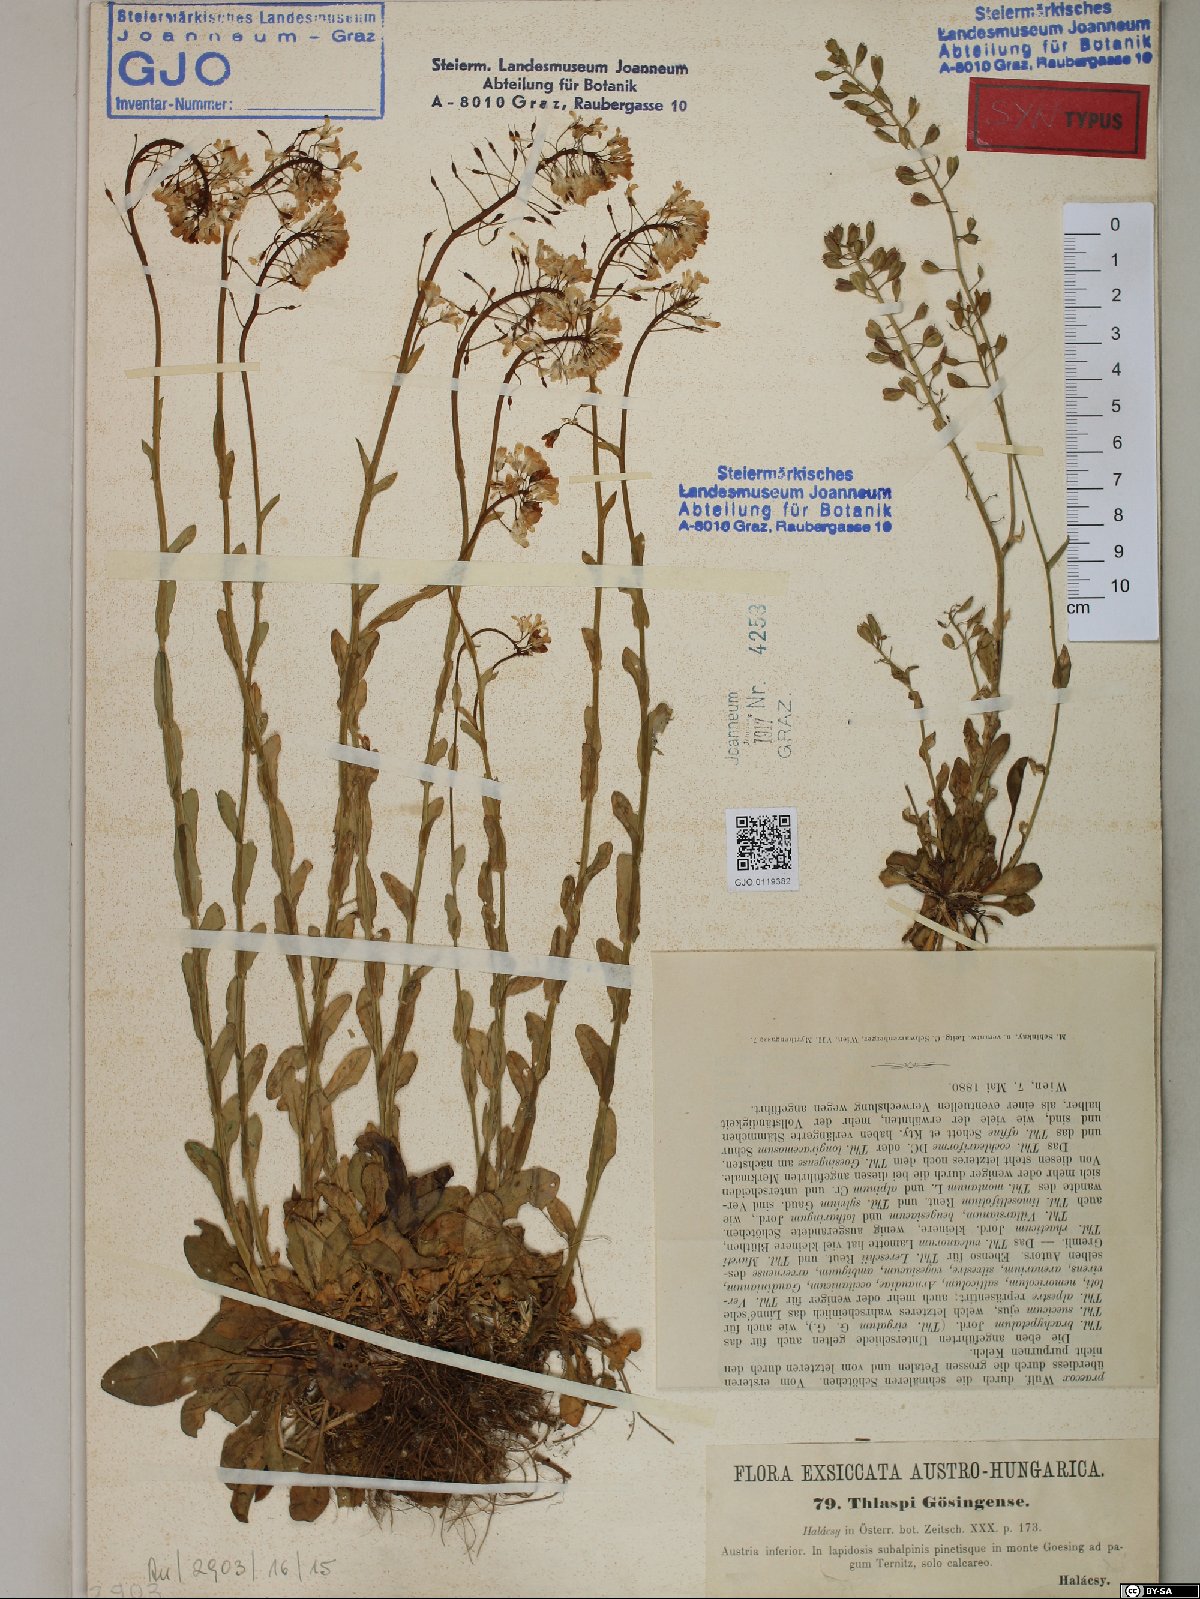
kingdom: Plantae
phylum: Tracheophyta
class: Magnoliopsida
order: Brassicales
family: Brassicaceae
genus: Noccaea
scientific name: Noccaea goesingensis
